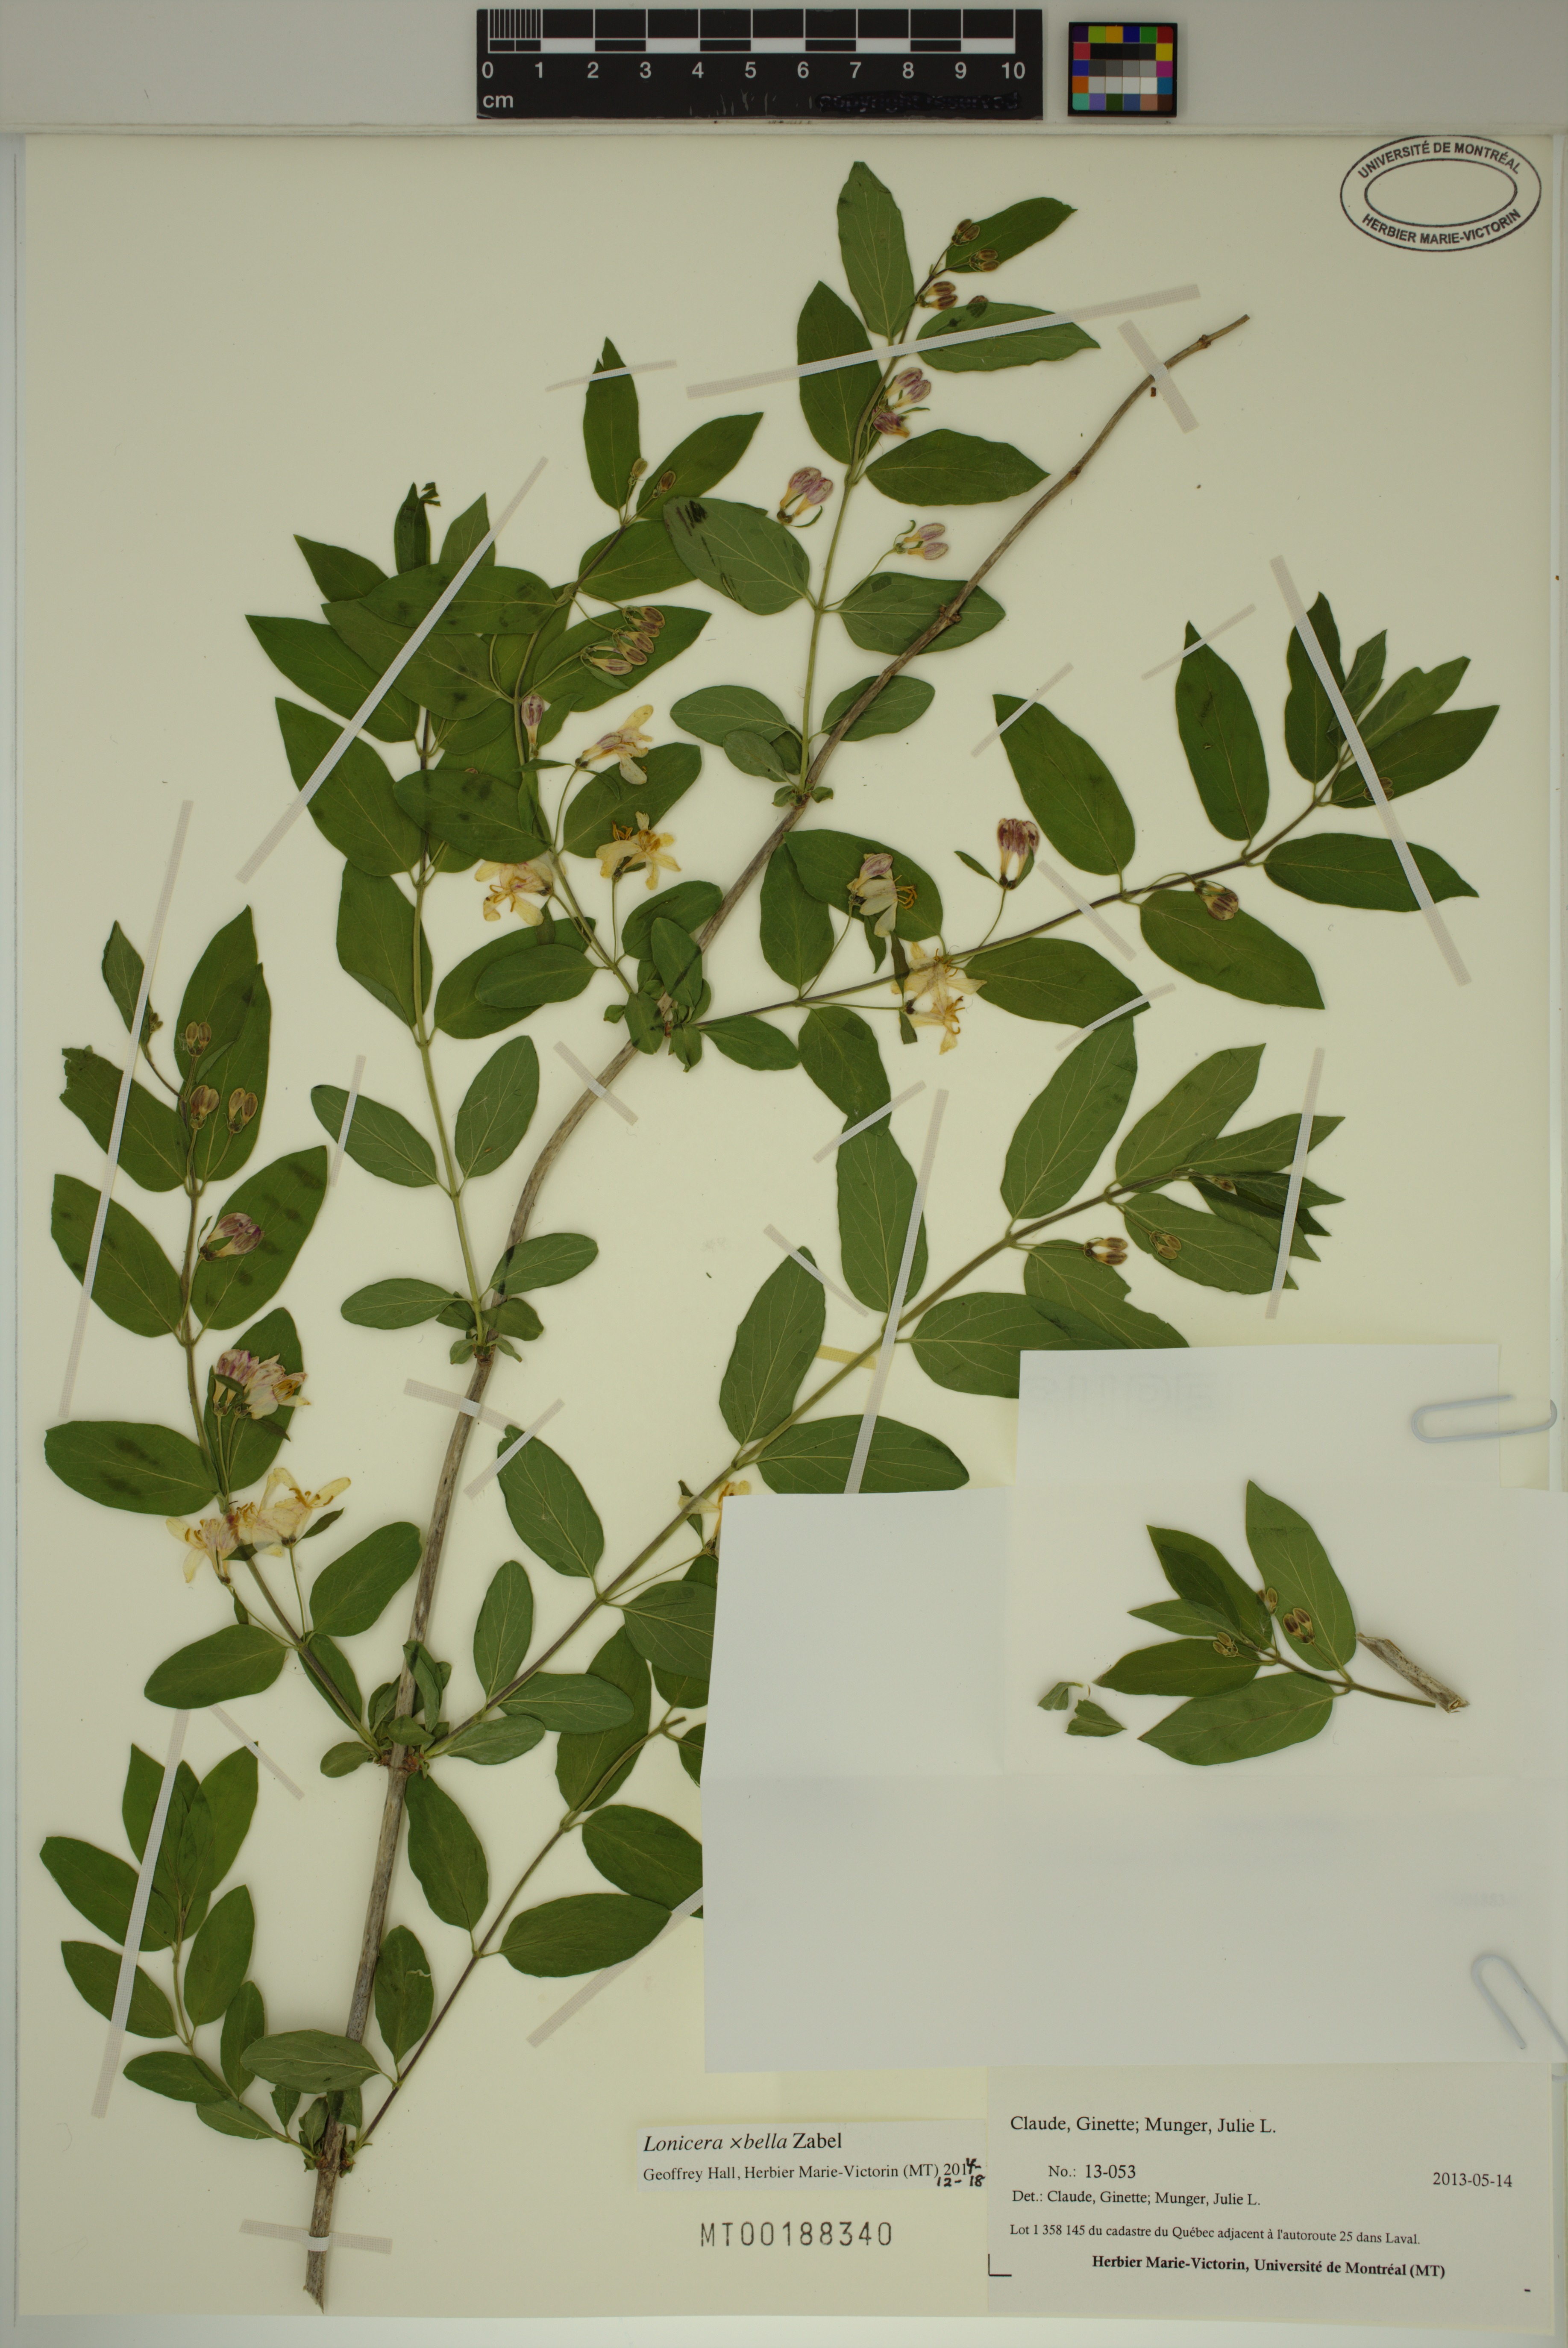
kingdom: Plantae
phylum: Tracheophyta
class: Magnoliopsida
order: Dipsacales
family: Caprifoliaceae
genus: Lonicera
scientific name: Lonicera bella
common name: Bell's honeysuckle
